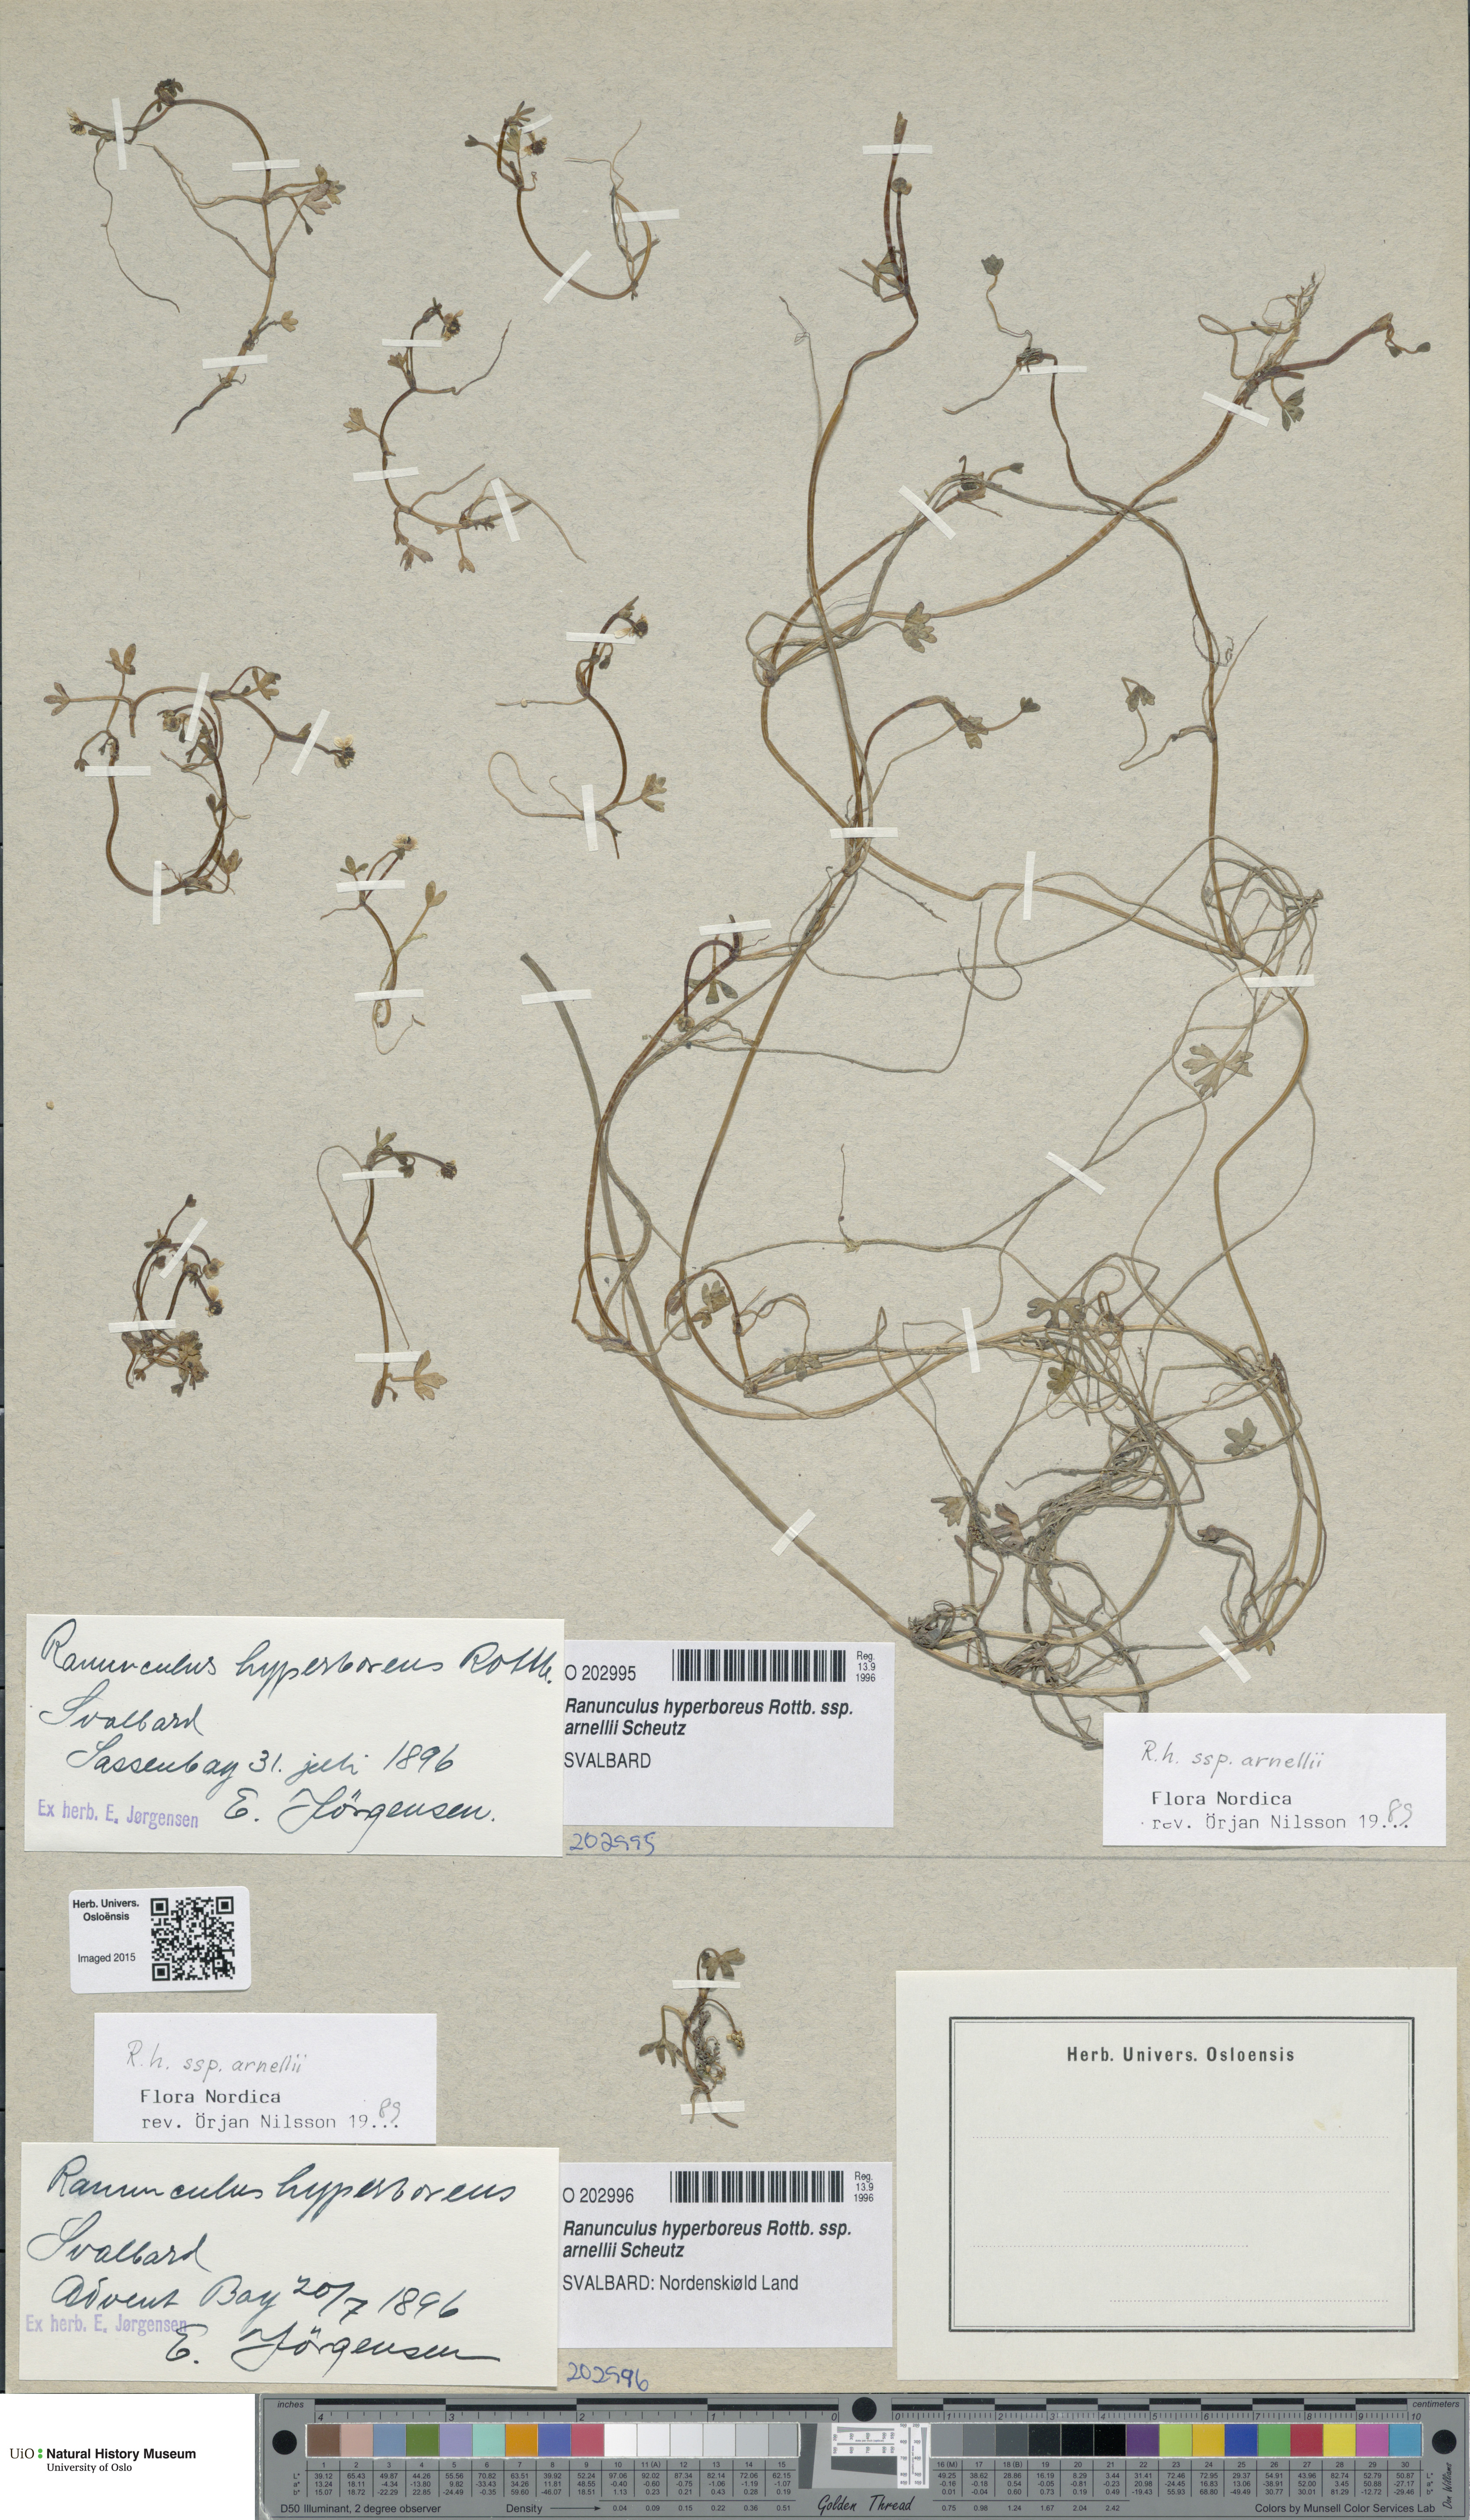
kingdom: Plantae
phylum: Tracheophyta
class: Magnoliopsida
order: Ranunculales
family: Ranunculaceae
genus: Ranunculus
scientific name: Ranunculus hyperboreus
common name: Arctic buttercup
